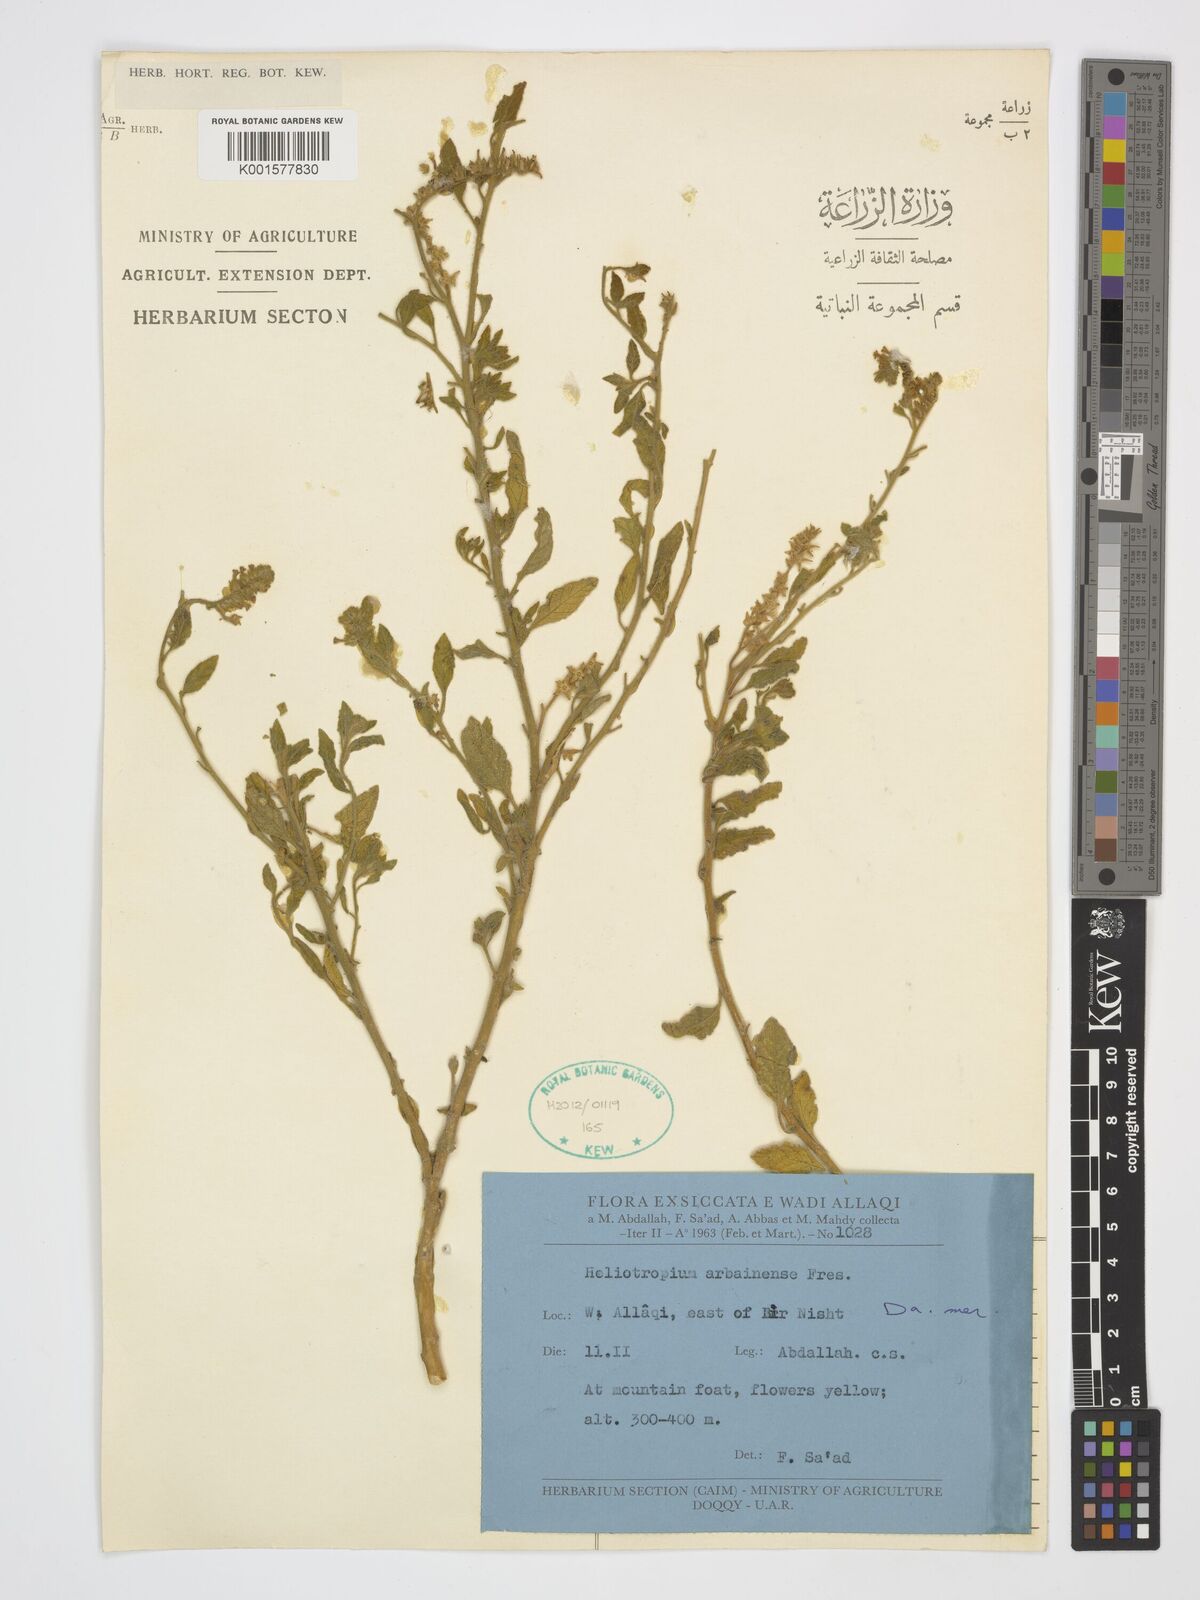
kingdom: Plantae
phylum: Tracheophyta
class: Magnoliopsida
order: Boraginales
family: Heliotropiaceae
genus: Heliotropium
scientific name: Heliotropium arbainense
